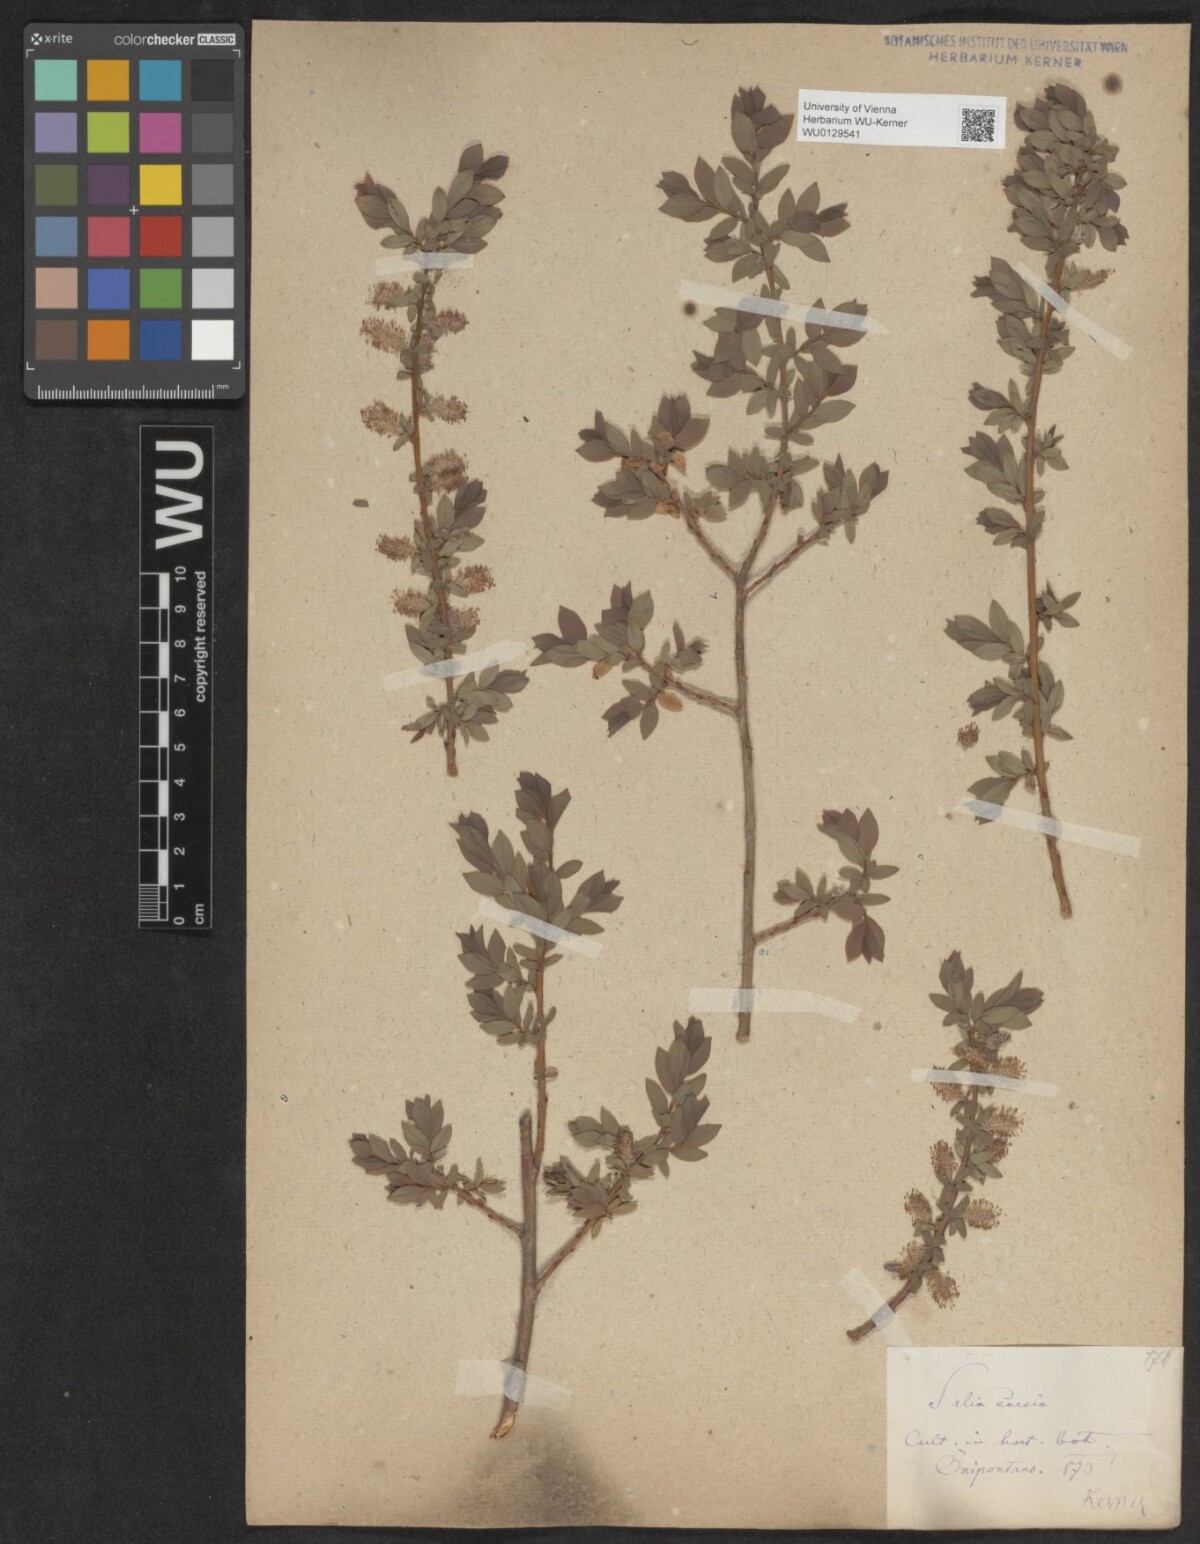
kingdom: Plantae
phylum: Tracheophyta
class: Magnoliopsida
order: Malpighiales
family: Salicaceae
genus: Salix
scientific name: Salix caesia
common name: Blue willow
